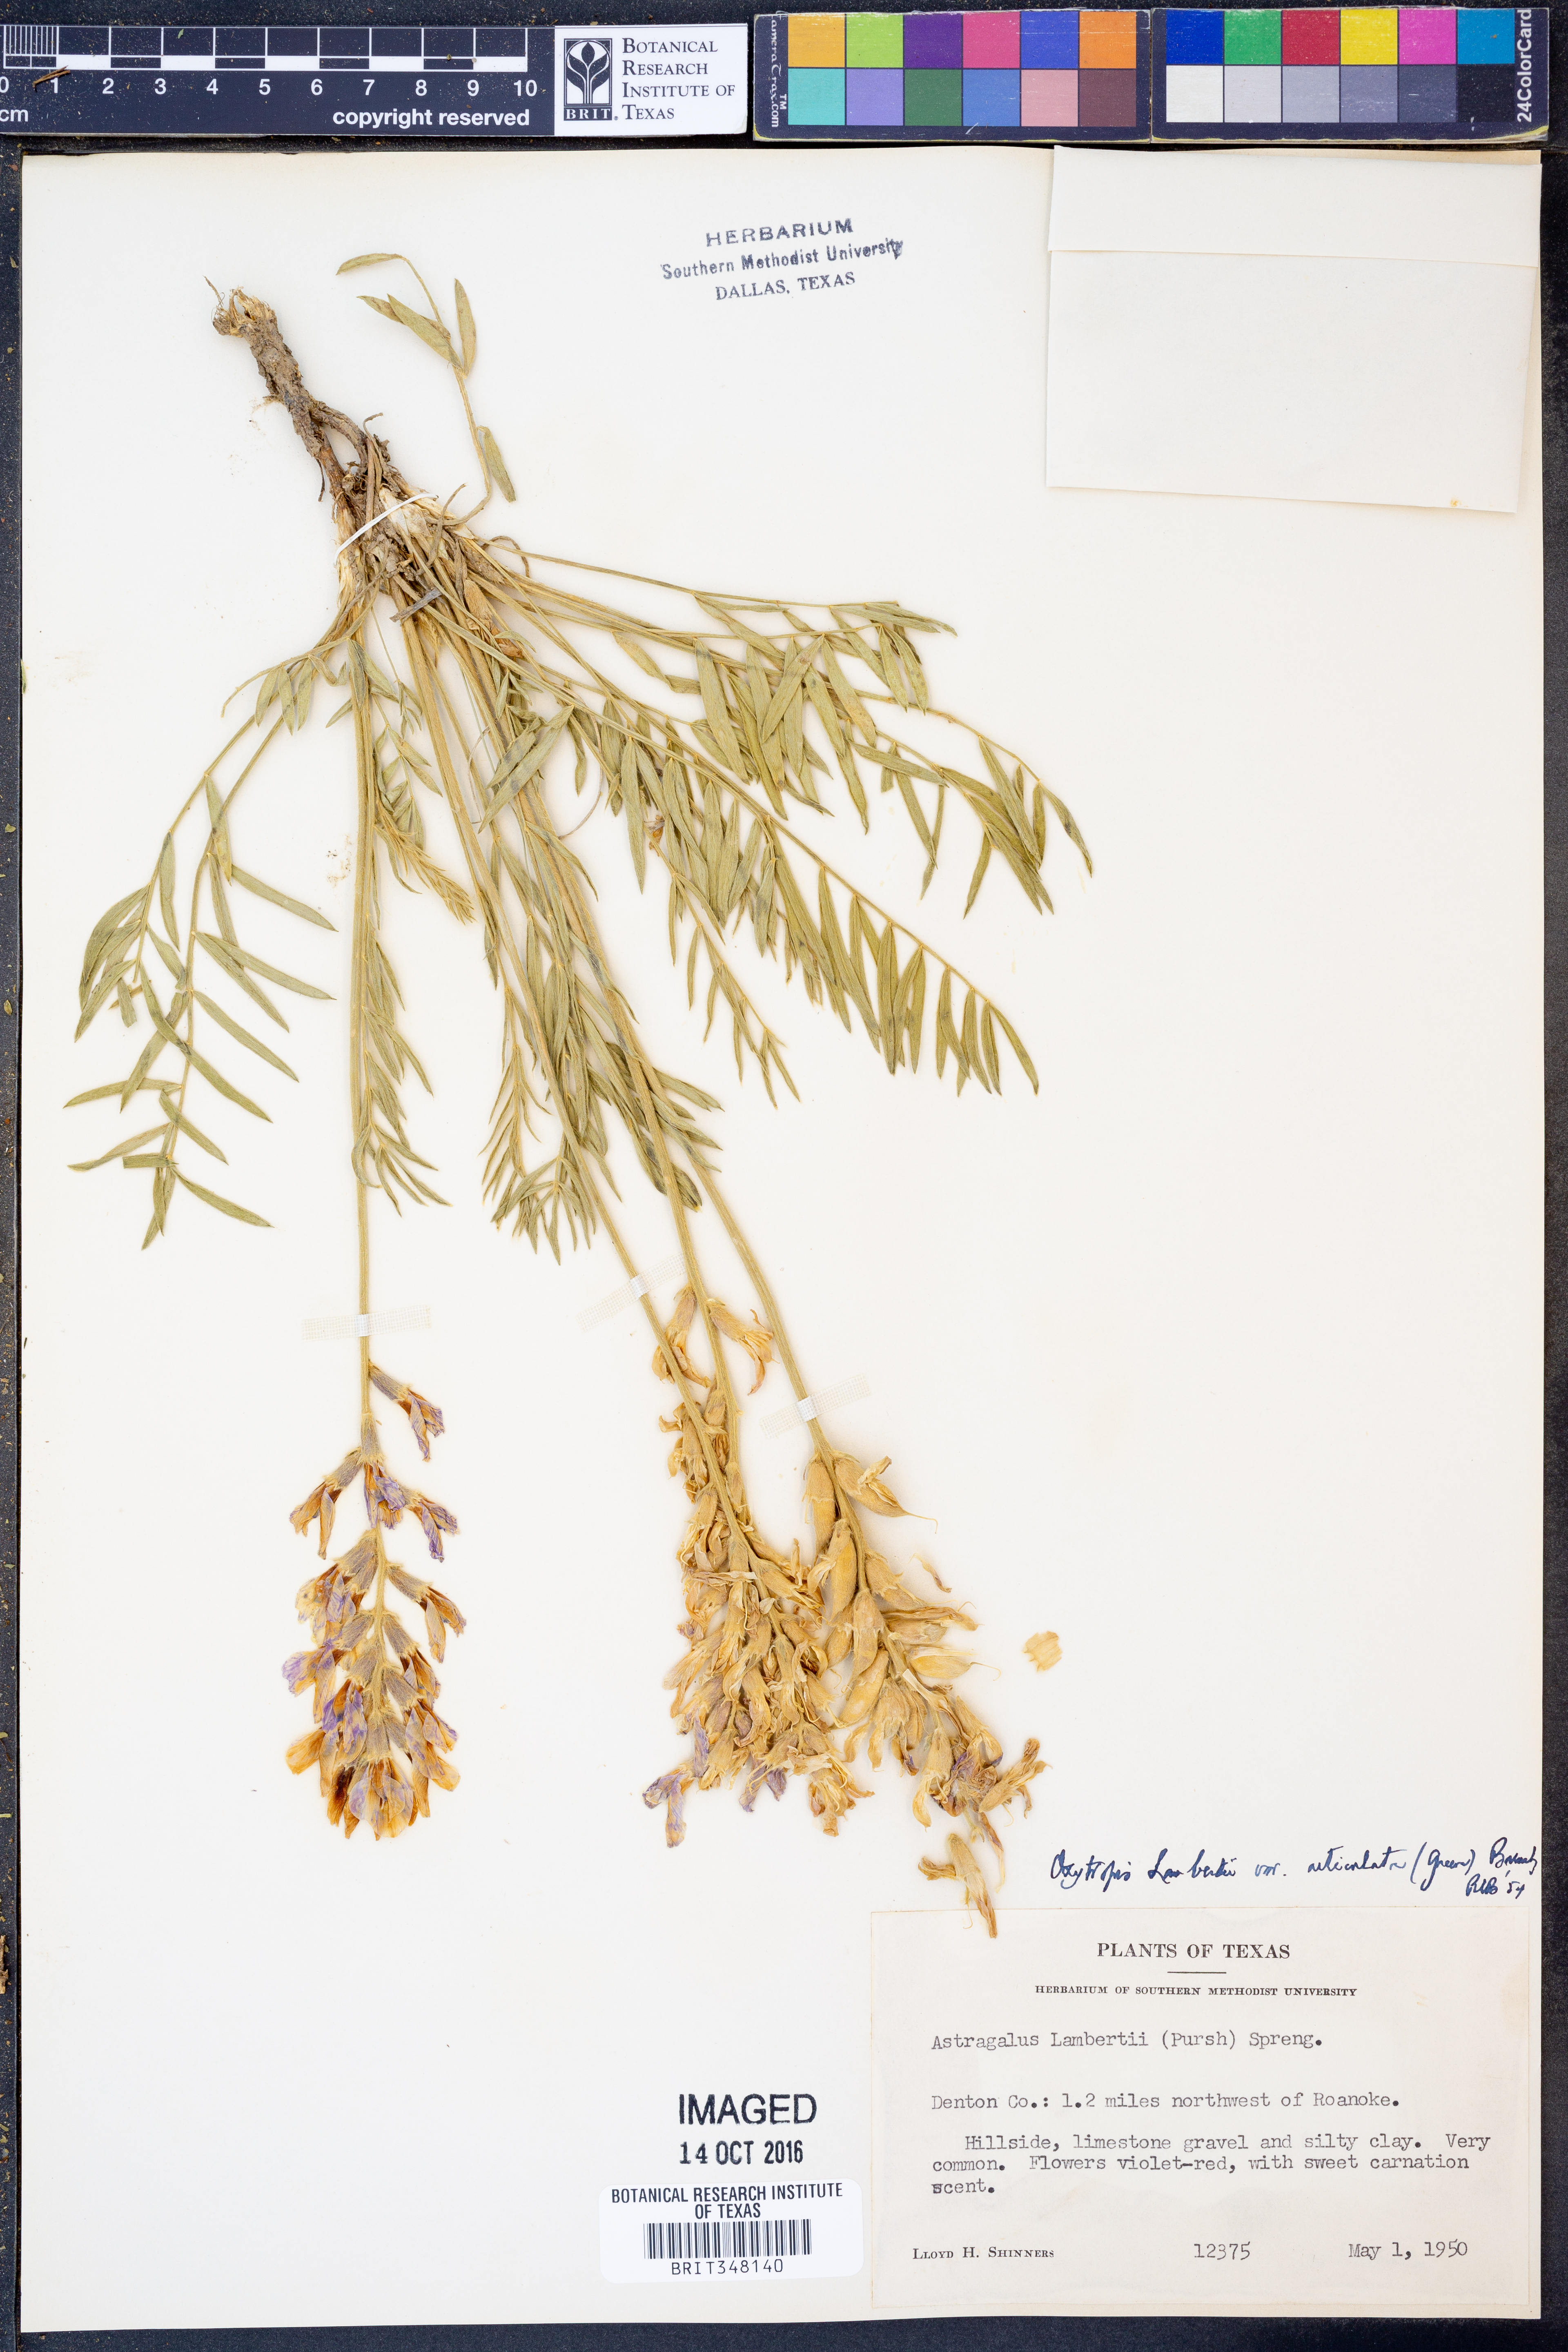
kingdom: Plantae
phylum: Tracheophyta
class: Magnoliopsida
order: Fabales
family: Fabaceae
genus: Oxytropis
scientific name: Oxytropis lambertii
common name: Purple locoweed
